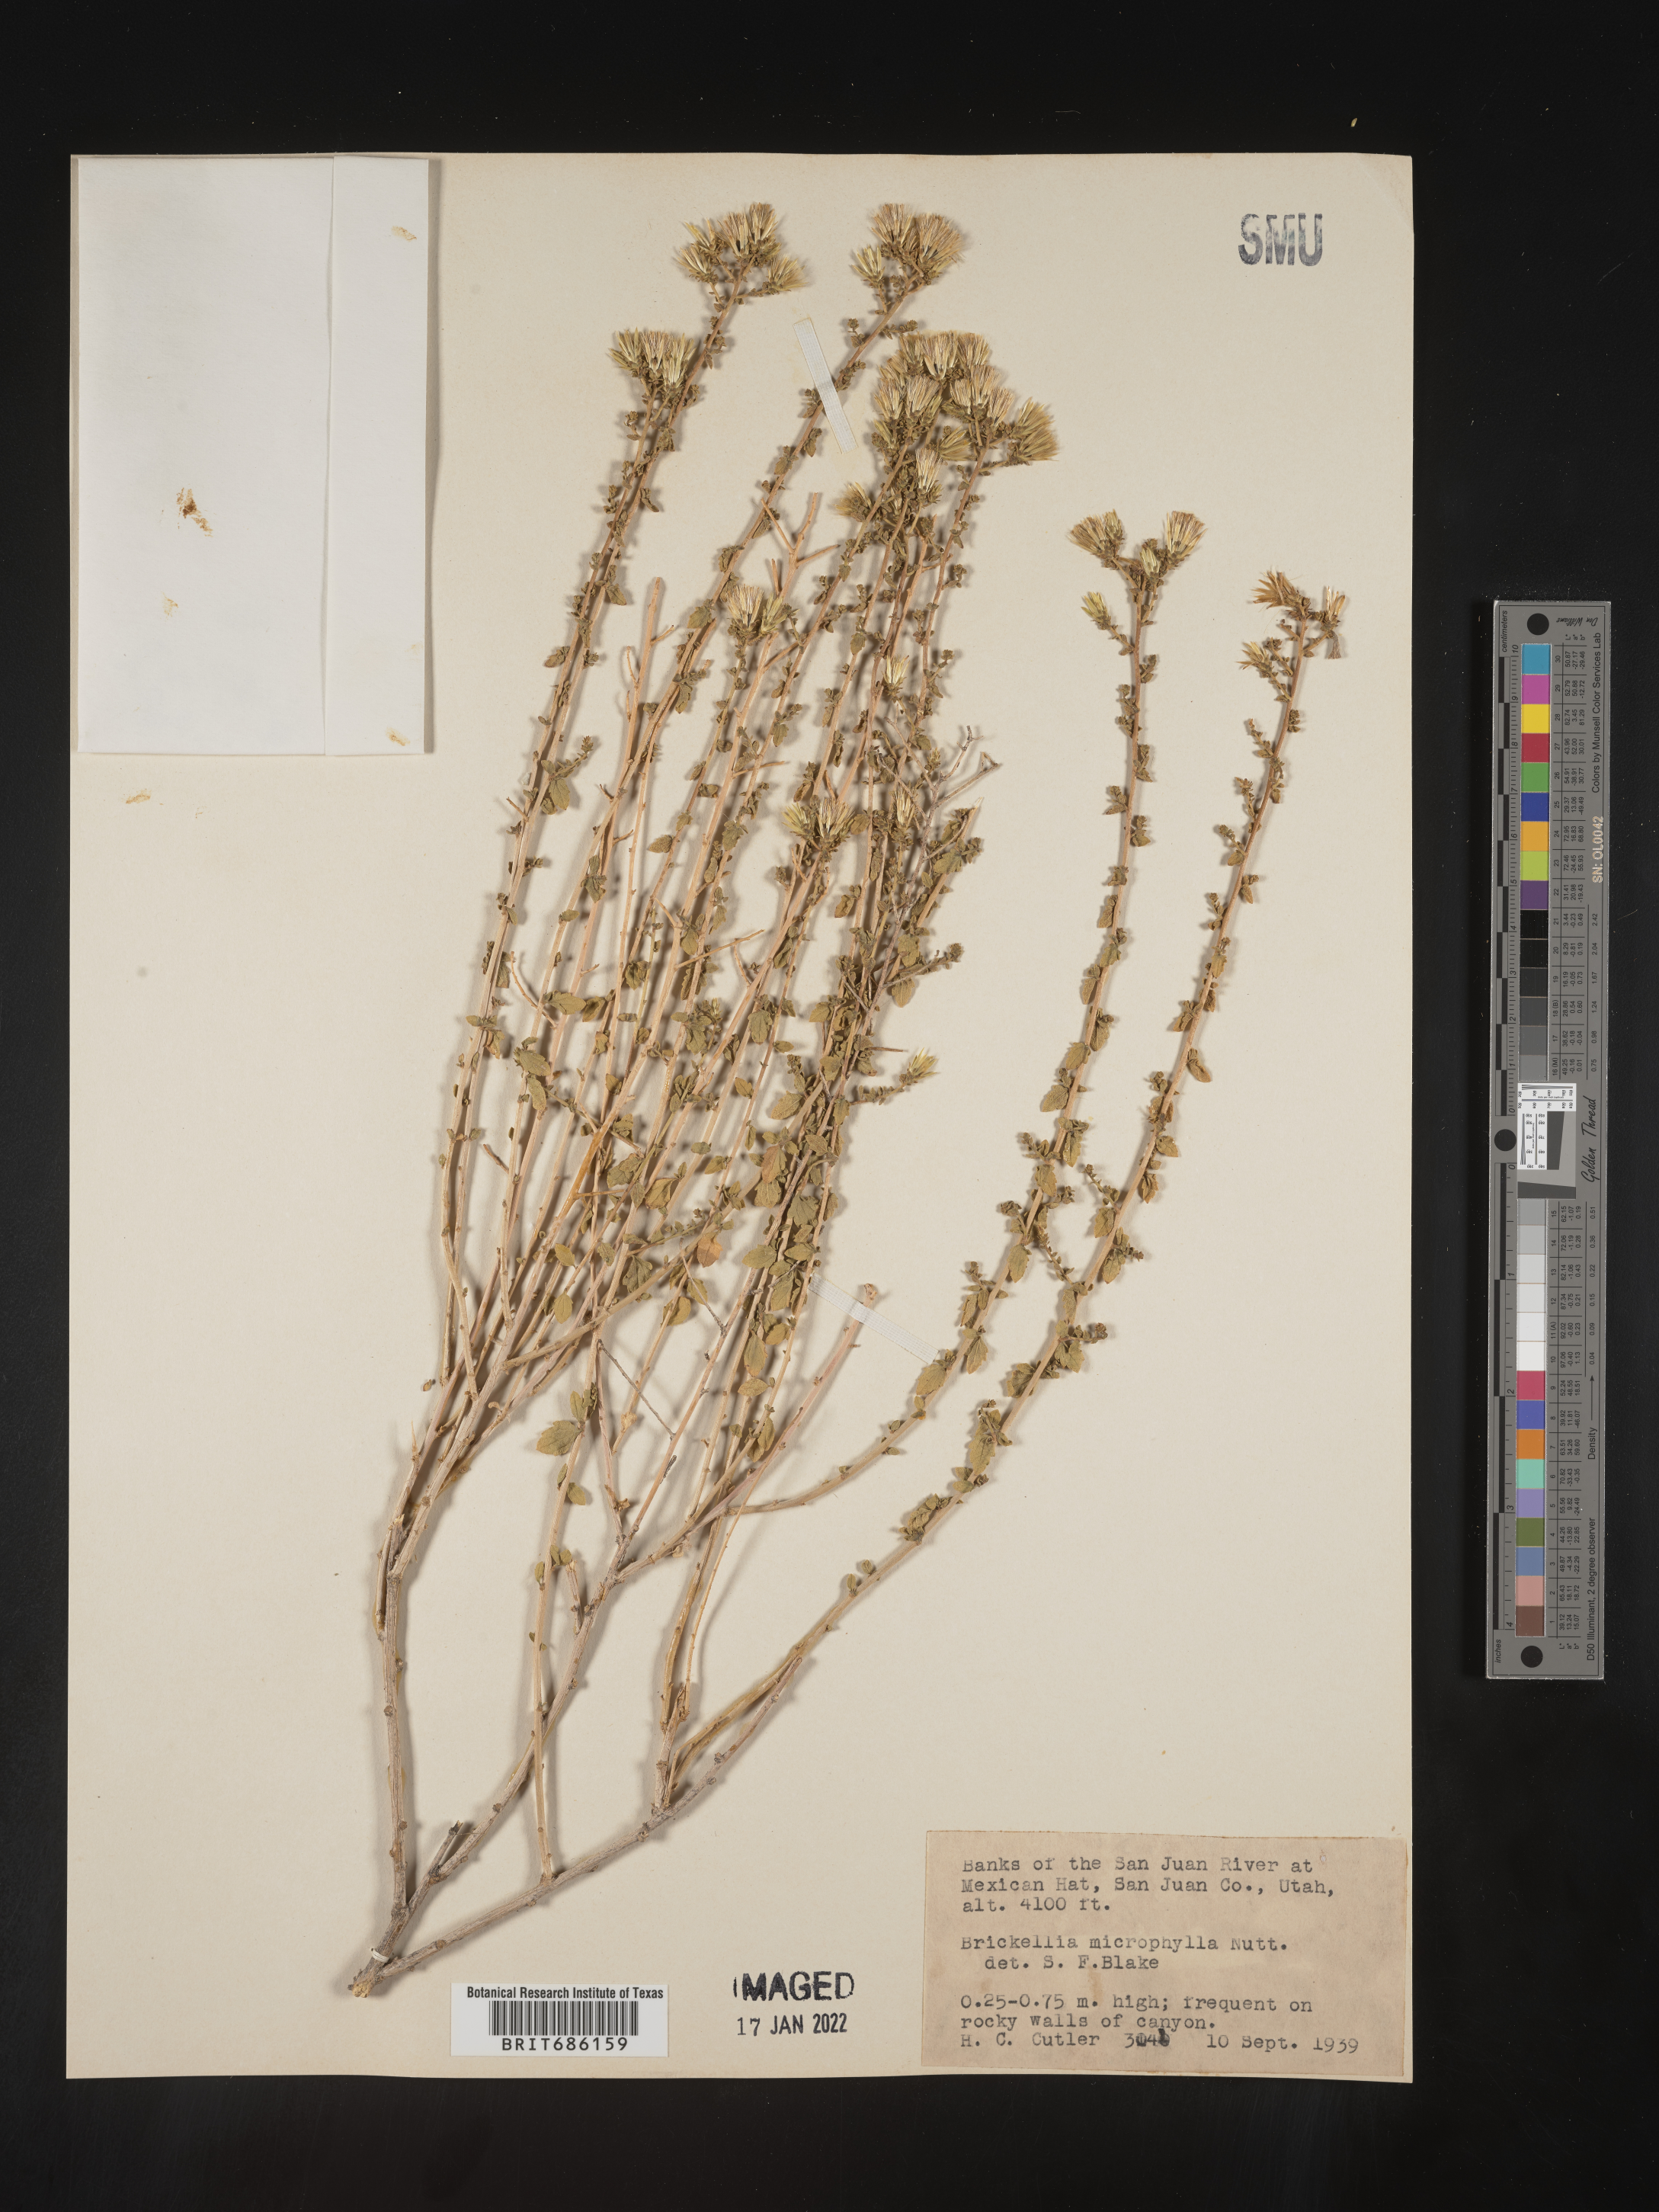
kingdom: Plantae
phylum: Tracheophyta
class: Magnoliopsida
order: Asterales
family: Asteraceae
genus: Brickellia
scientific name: Brickellia microphylla
